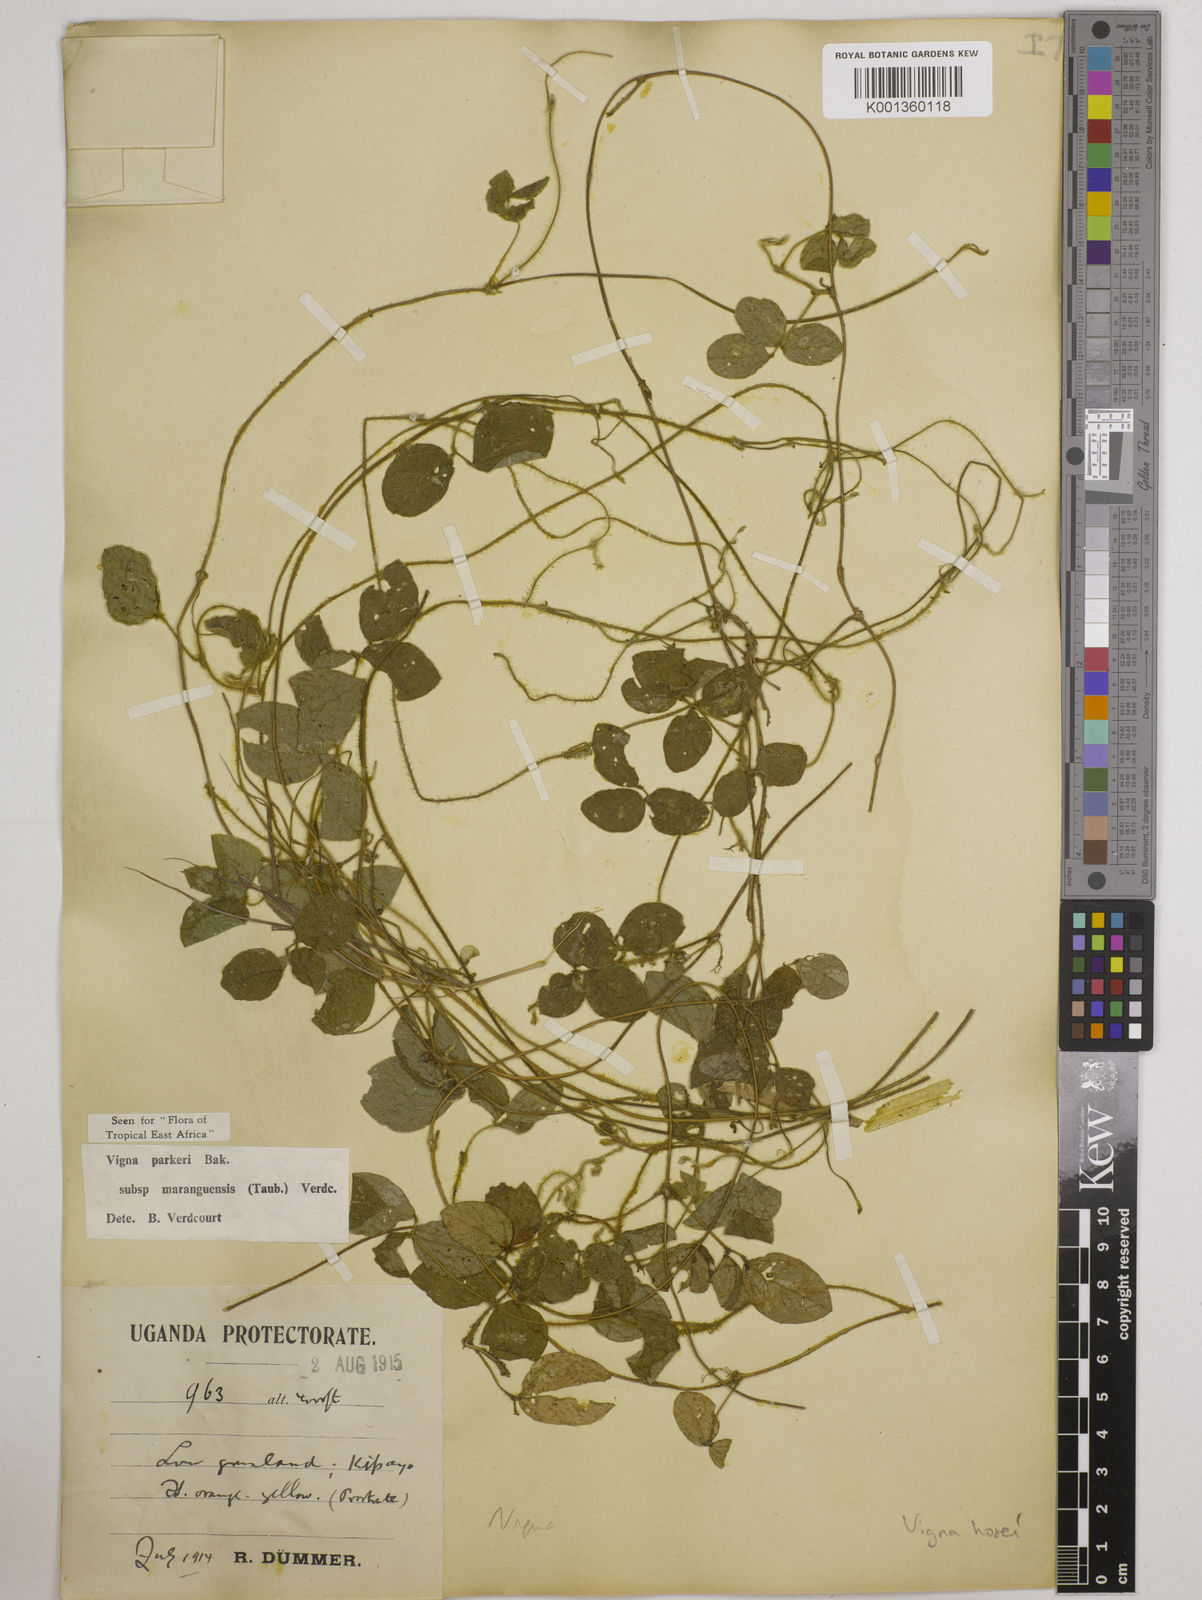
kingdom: Plantae
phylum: Tracheophyta
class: Magnoliopsida
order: Fabales
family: Fabaceae
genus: Vigna
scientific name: Vigna
